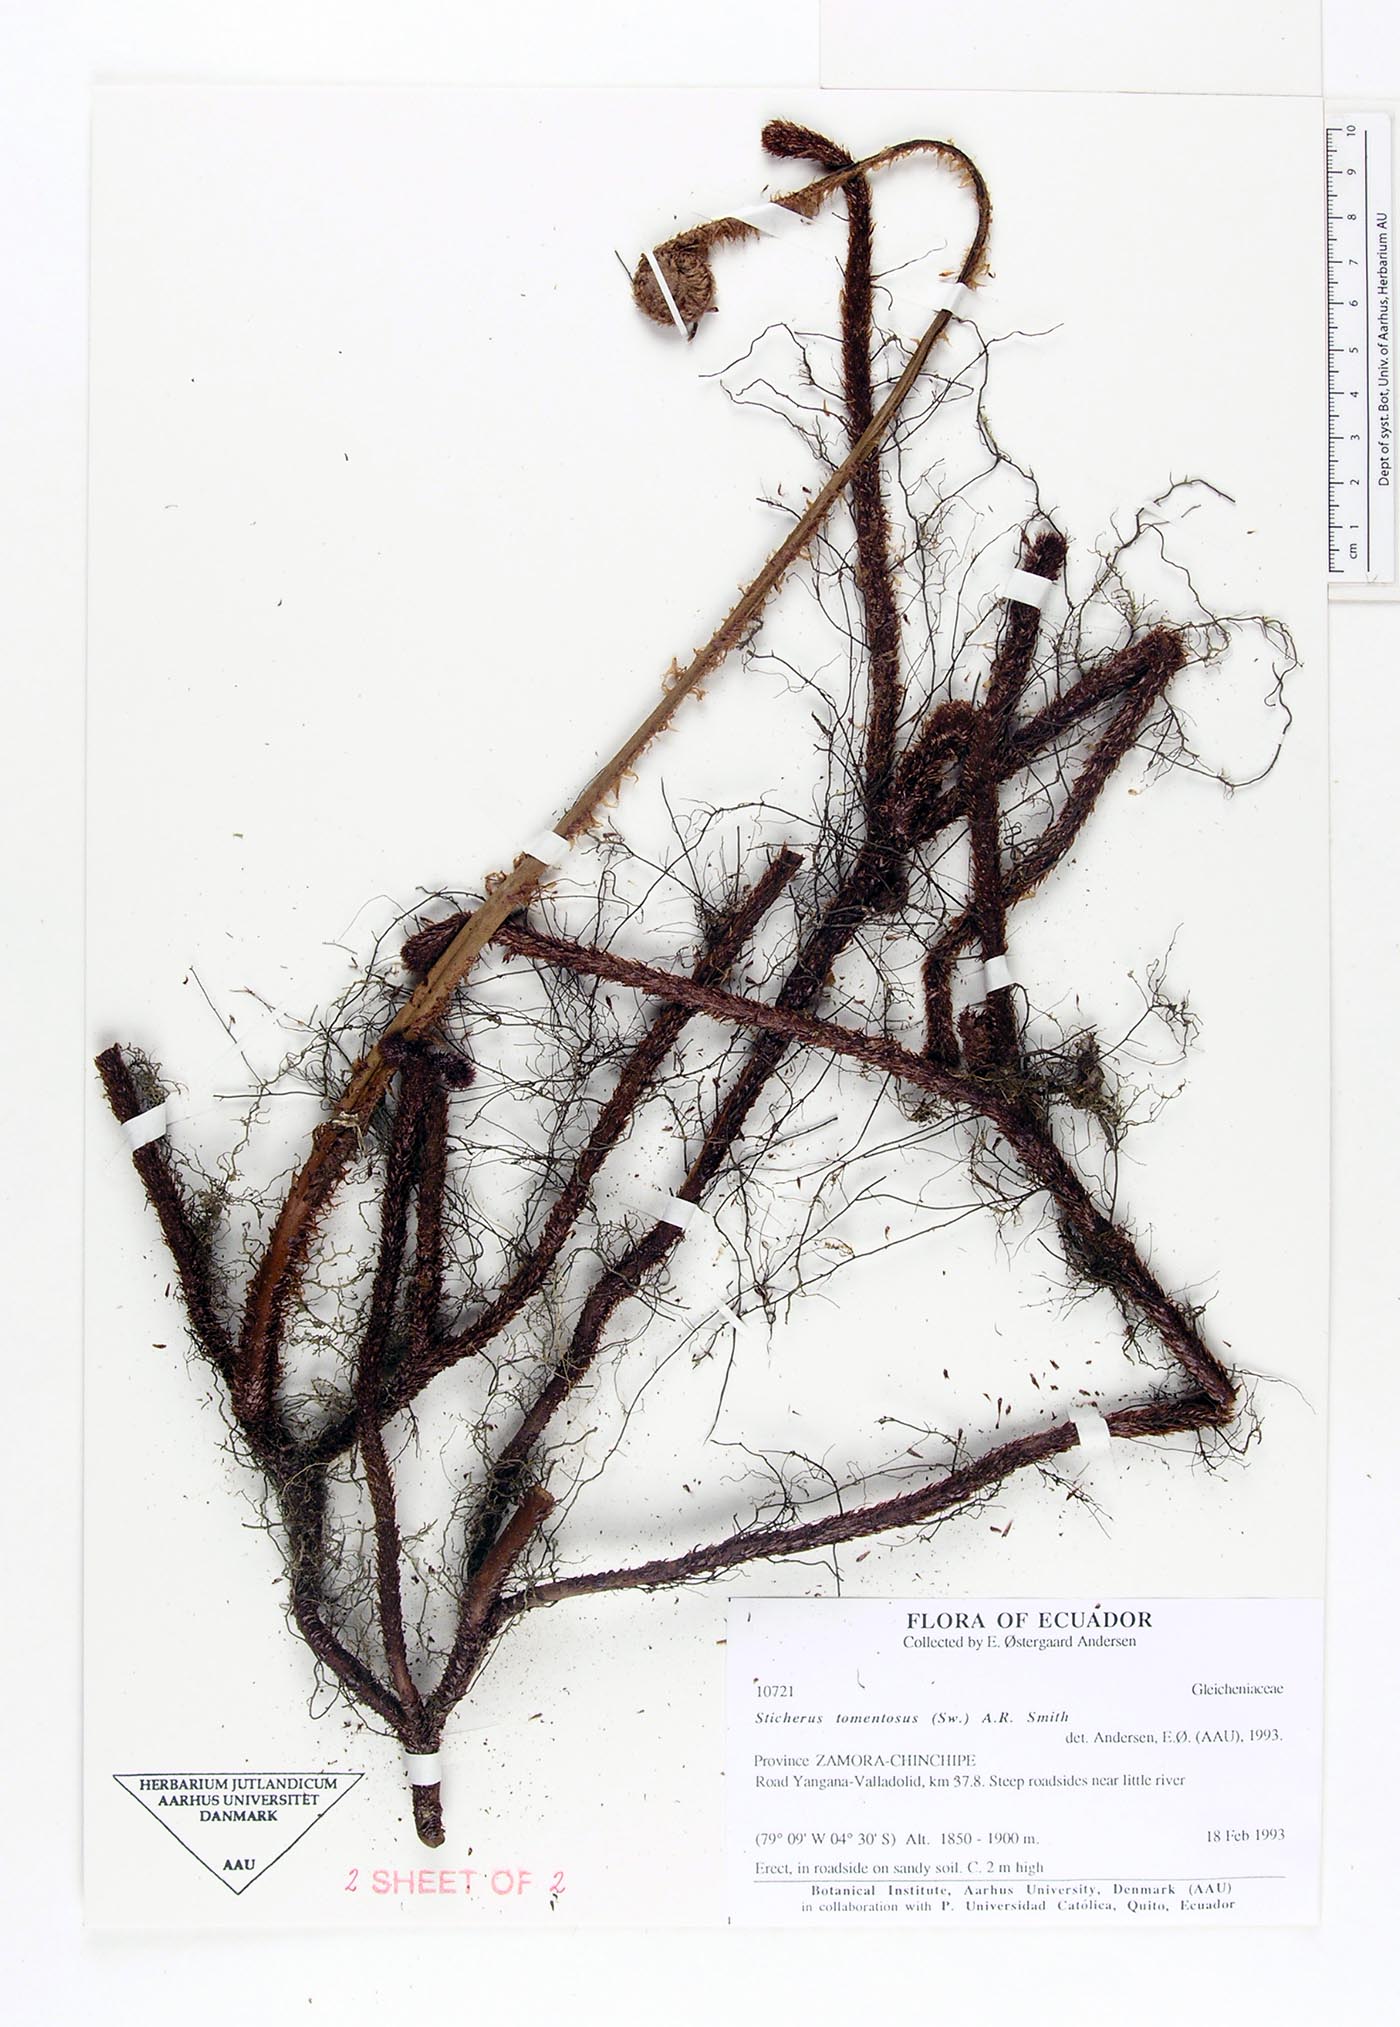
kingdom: Plantae
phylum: Tracheophyta
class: Polypodiopsida
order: Gleicheniales
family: Gleicheniaceae
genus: Sticherus
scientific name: Sticherus tomentosus
